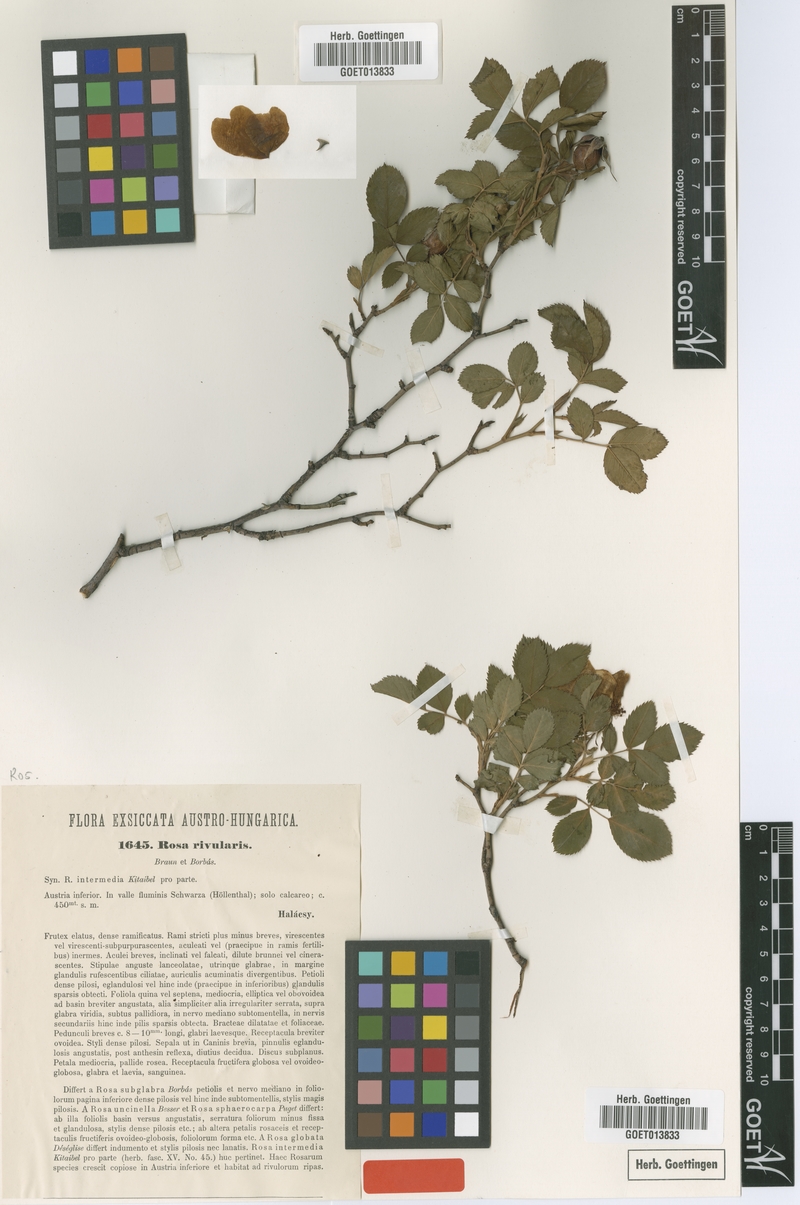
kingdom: Plantae
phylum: Tracheophyta
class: Magnoliopsida
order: Rosales
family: Rosaceae
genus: Rosa
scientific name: Rosa corymbifera
